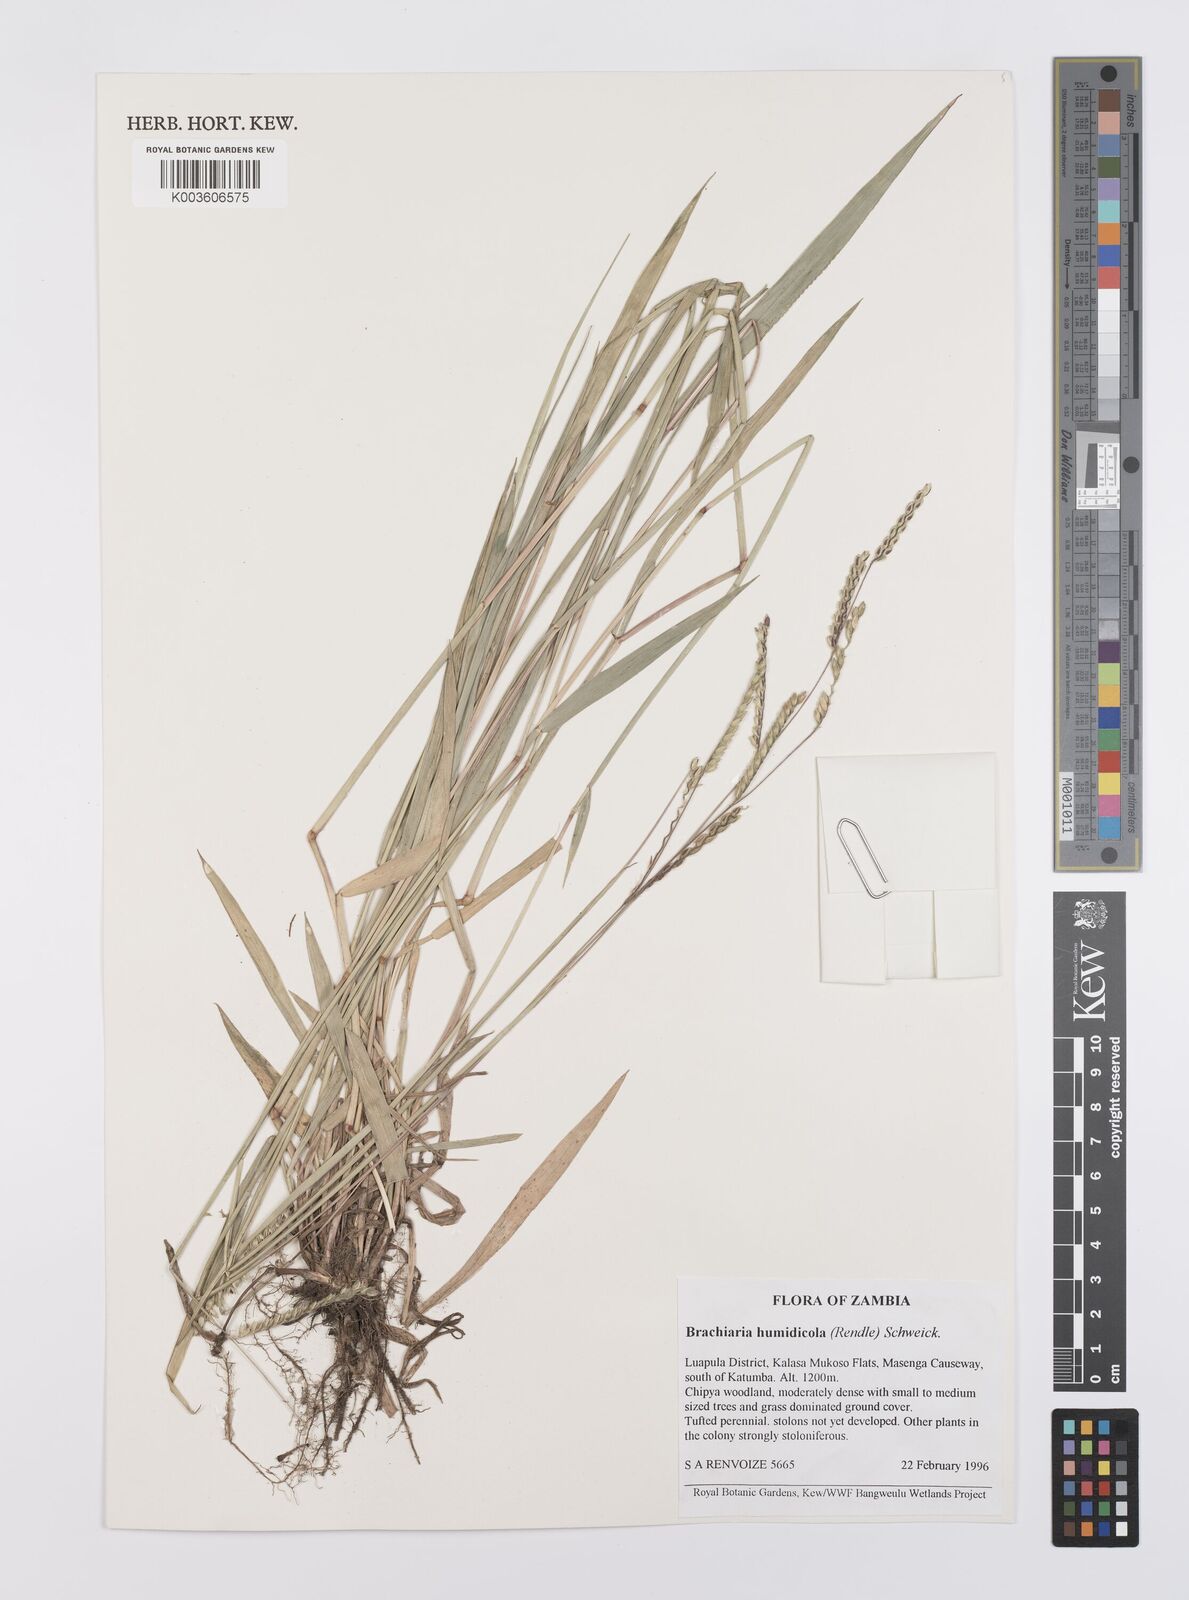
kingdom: Plantae
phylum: Tracheophyta
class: Liliopsida
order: Poales
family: Poaceae
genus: Urochloa
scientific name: Urochloa dictyoneura
